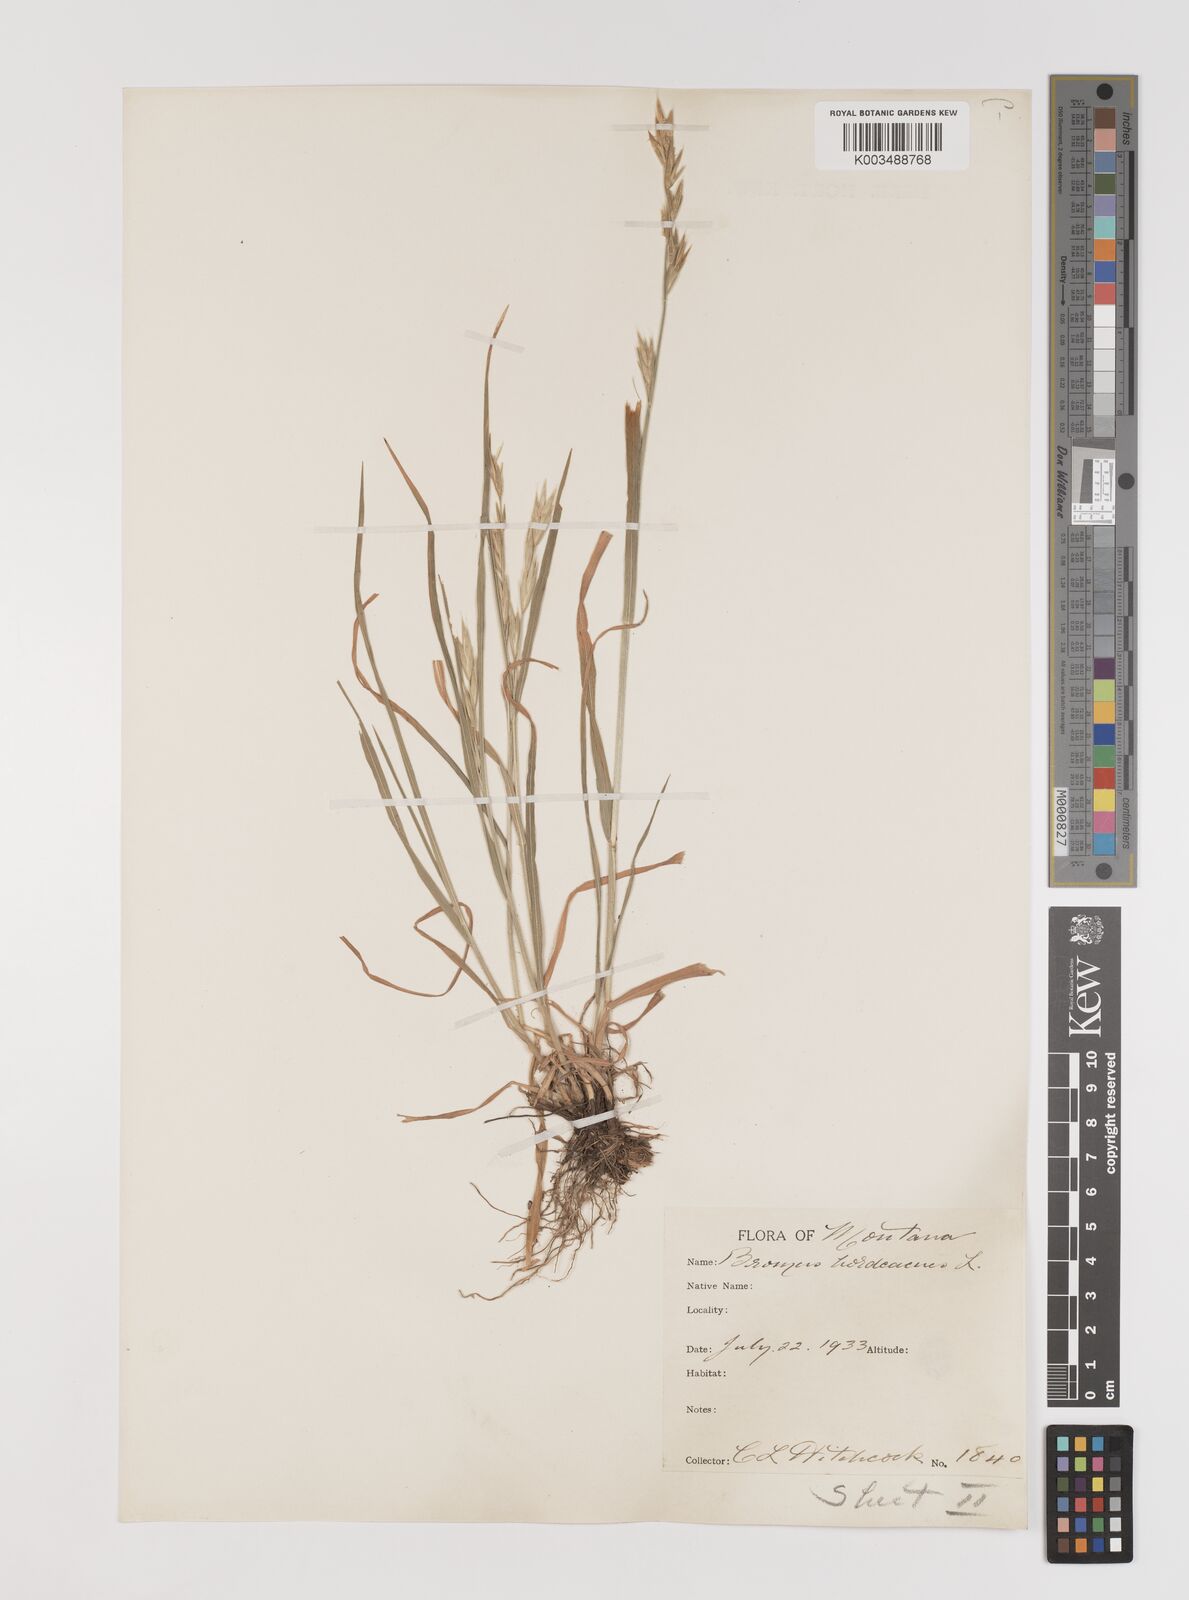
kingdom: Plantae
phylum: Tracheophyta
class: Liliopsida
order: Poales
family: Poaceae
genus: Bromus
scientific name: Bromus
